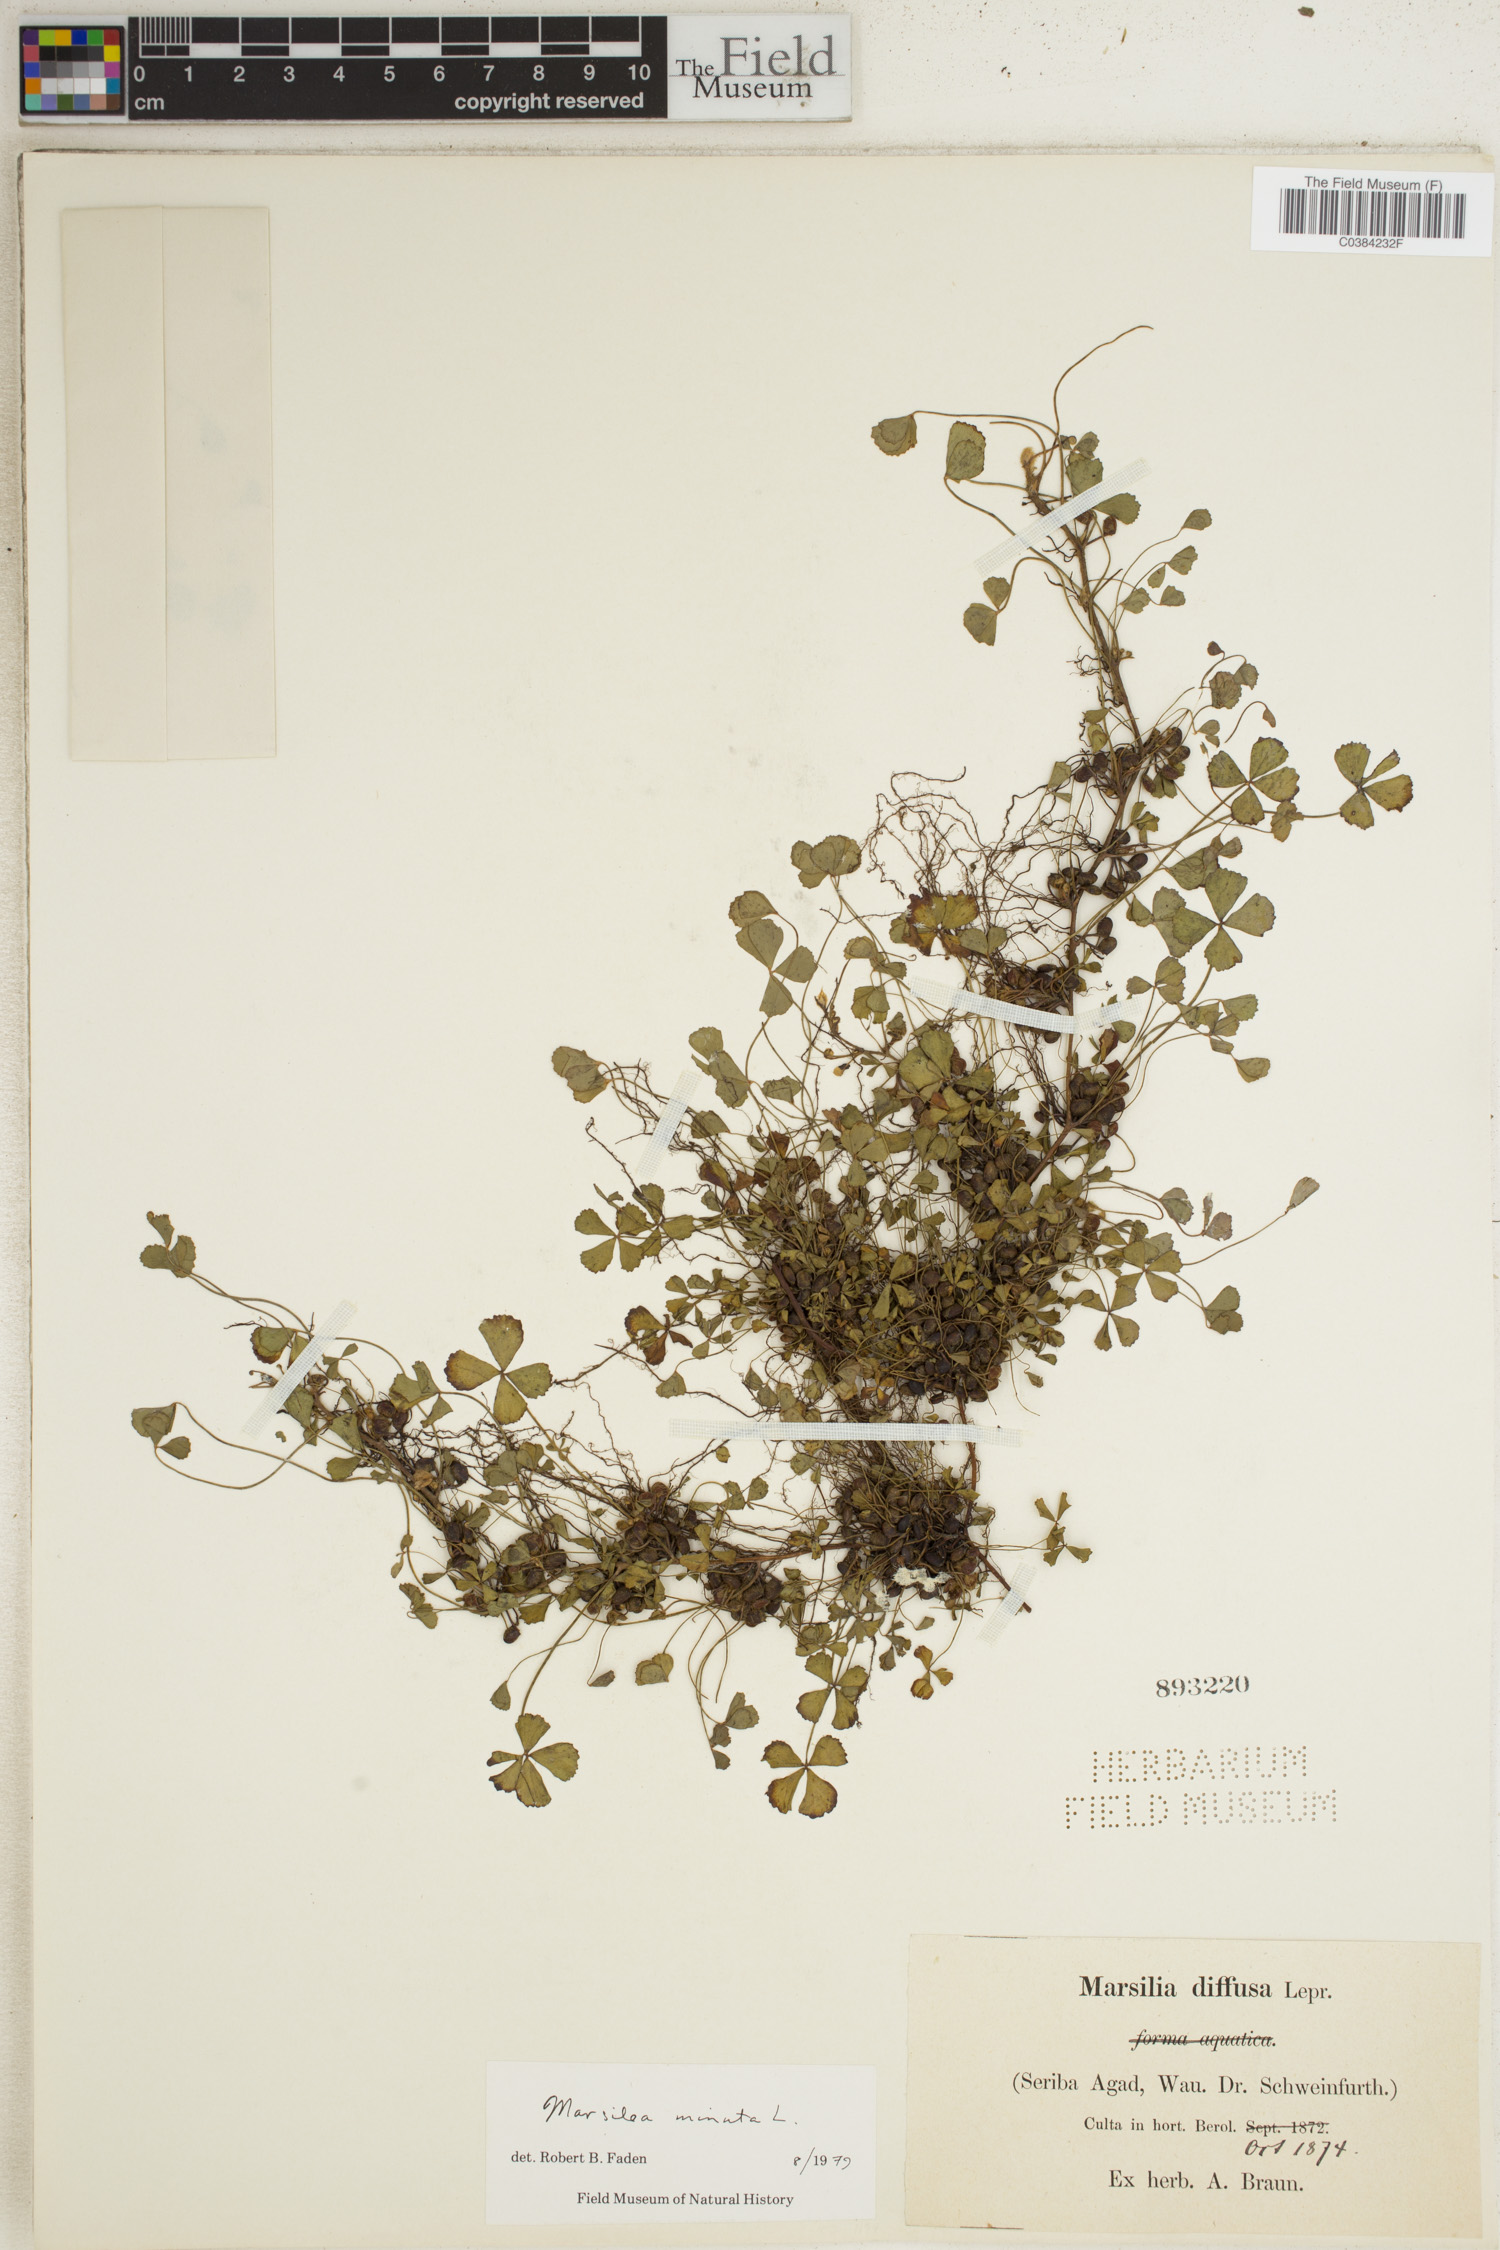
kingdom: Plantae
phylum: Tracheophyta
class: Polypodiopsida
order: Salviniales
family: Marsileaceae
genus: Marsilea
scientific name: Marsilea minuta
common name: Dwarf waterclover
